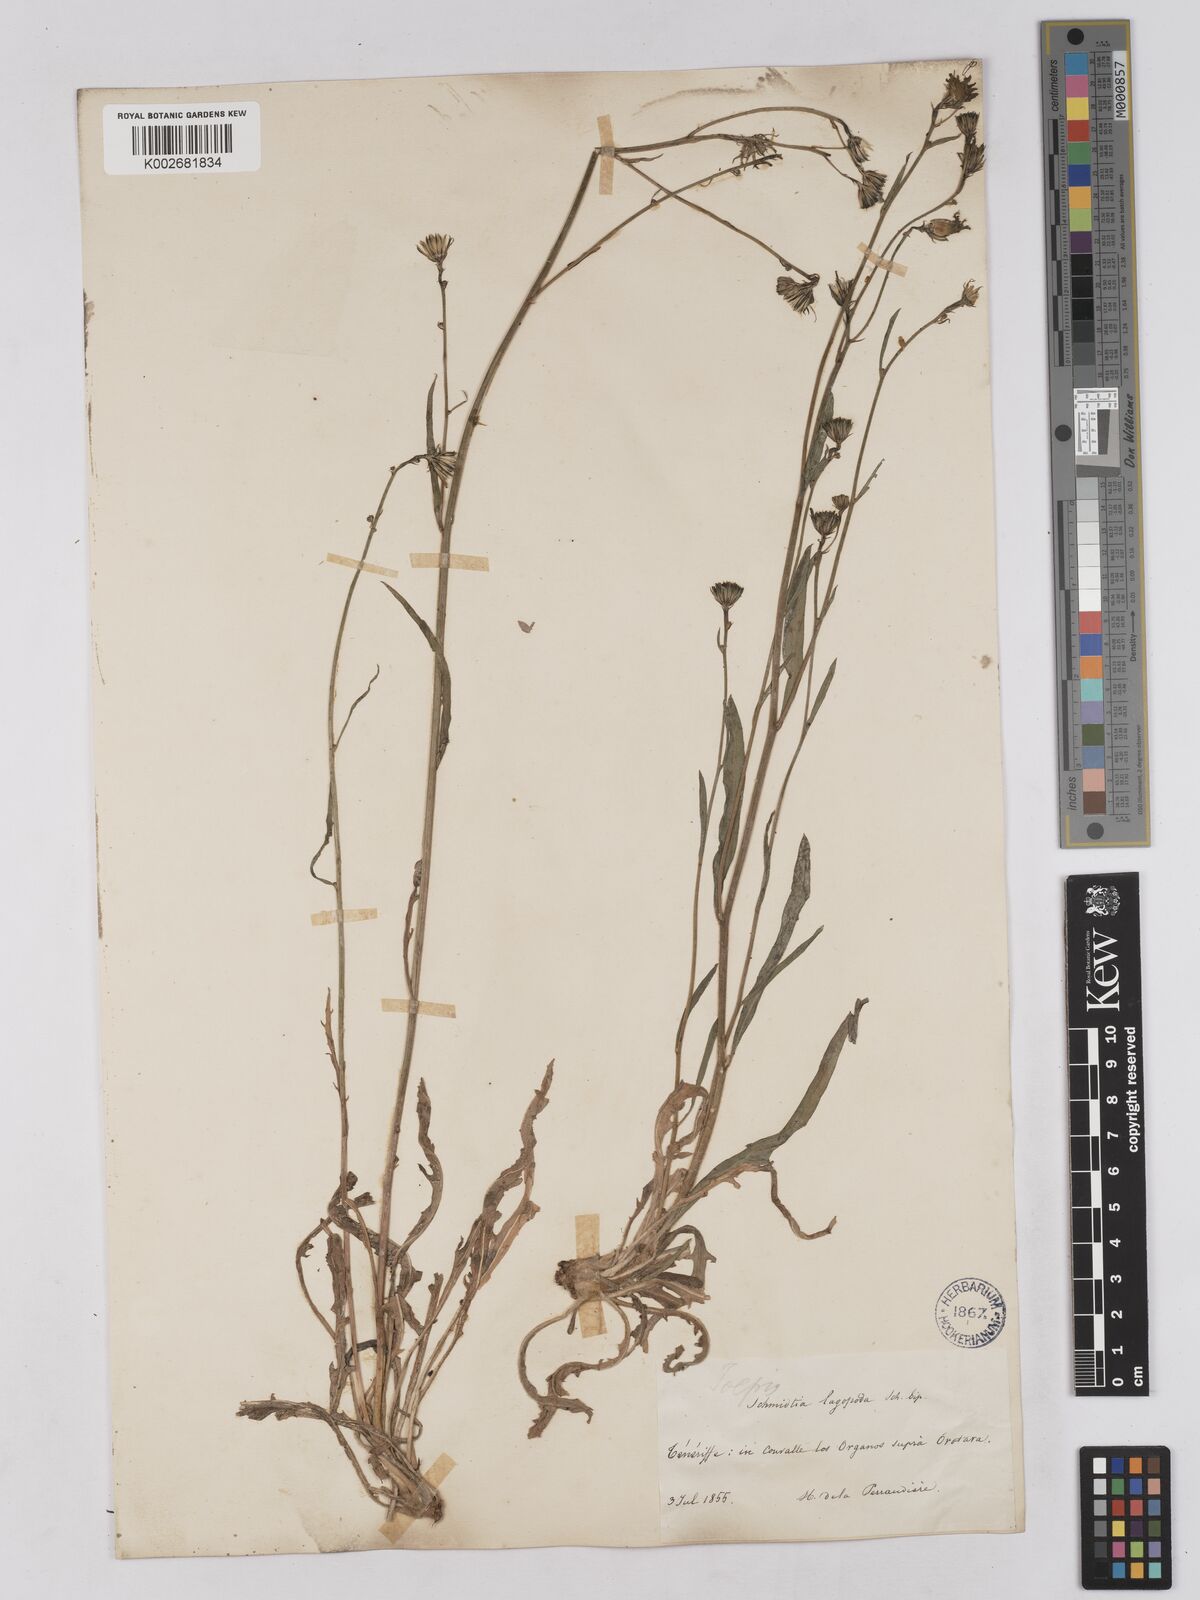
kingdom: Plantae
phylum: Tracheophyta
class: Magnoliopsida
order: Asterales
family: Asteraceae
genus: Tolpis
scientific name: Tolpis lagopoda
